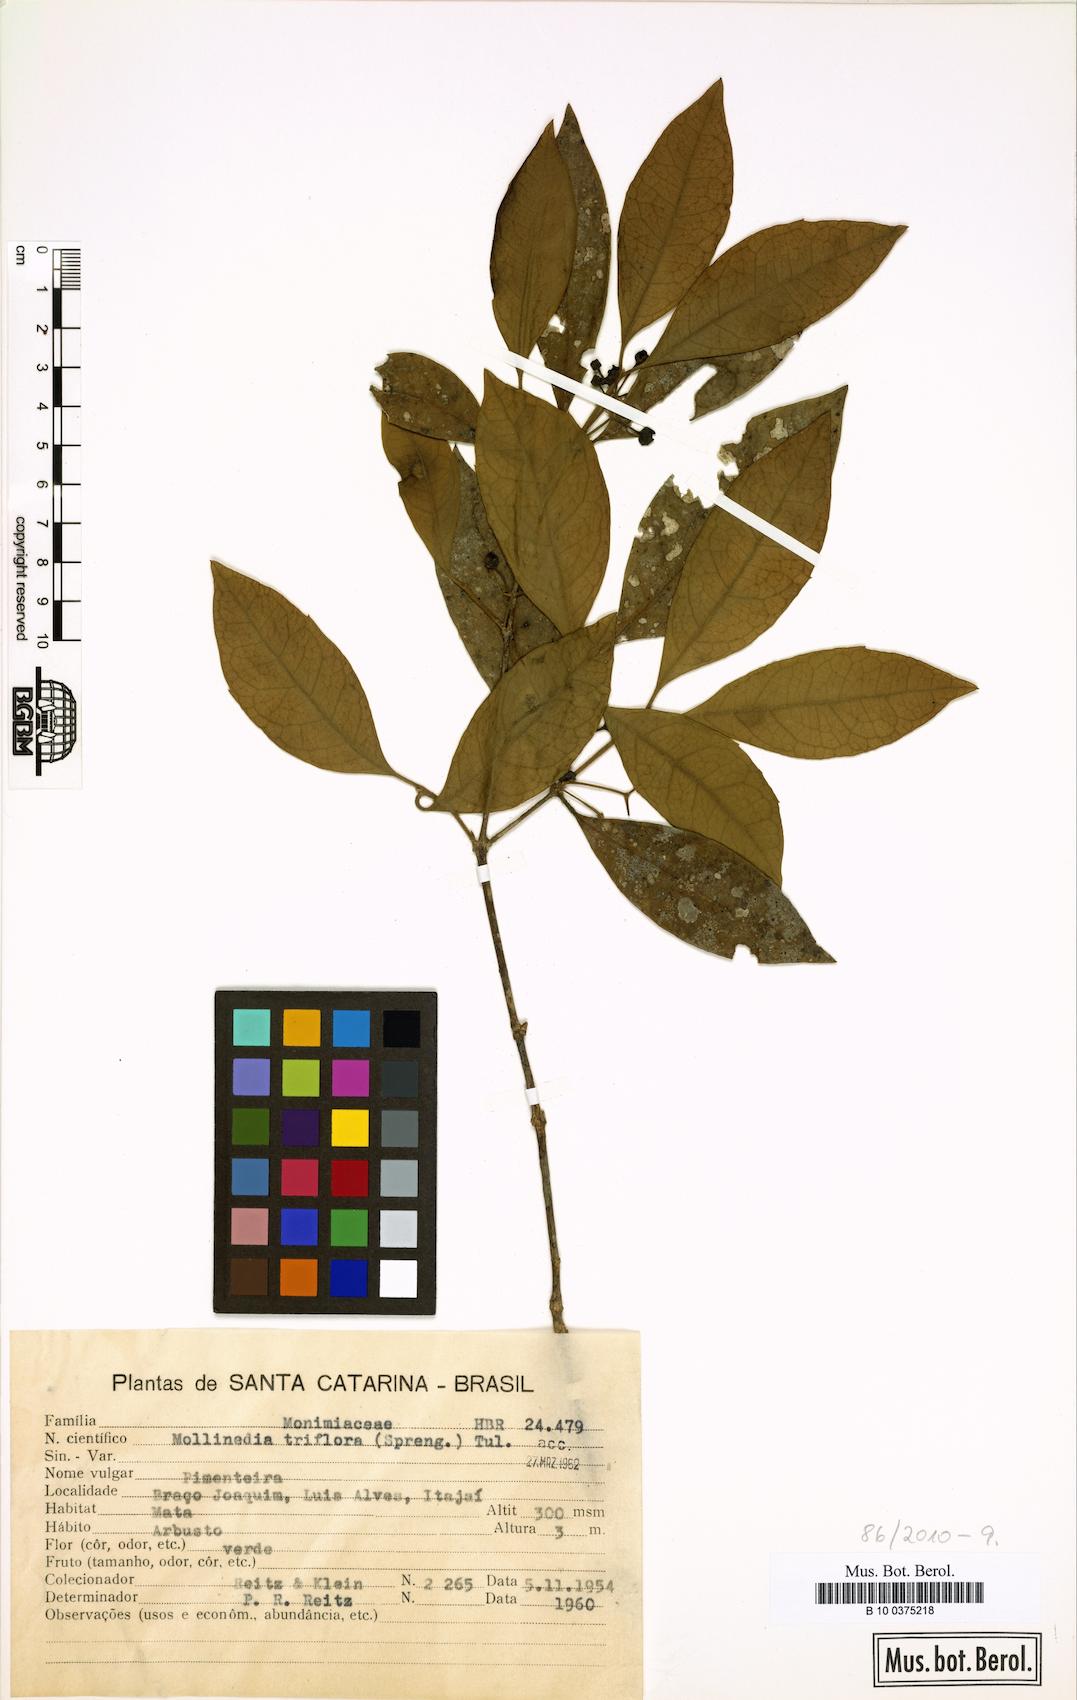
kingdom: Plantae
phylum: Tracheophyta
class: Magnoliopsida
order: Laurales
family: Monimiaceae
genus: Mollinedia
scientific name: Mollinedia triflora
